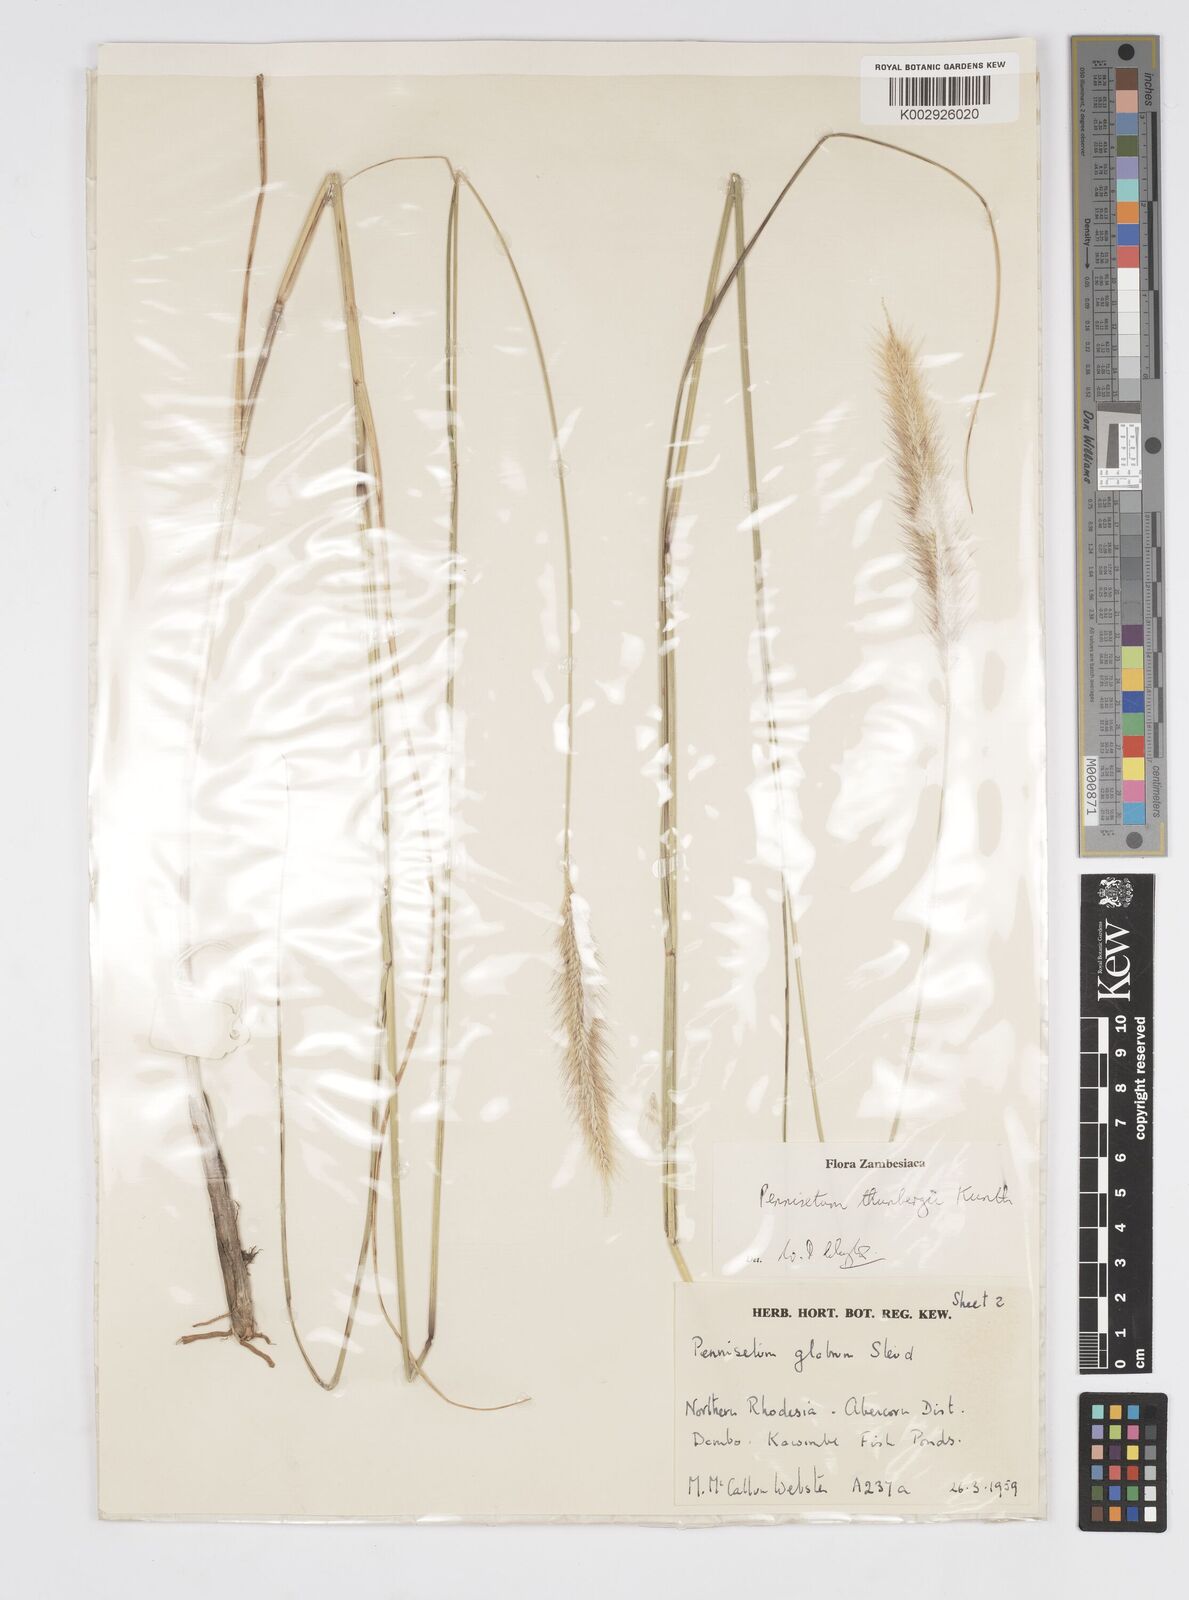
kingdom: Plantae
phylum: Tracheophyta
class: Liliopsida
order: Poales
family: Poaceae
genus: Cenchrus
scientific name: Cenchrus geniculatus
